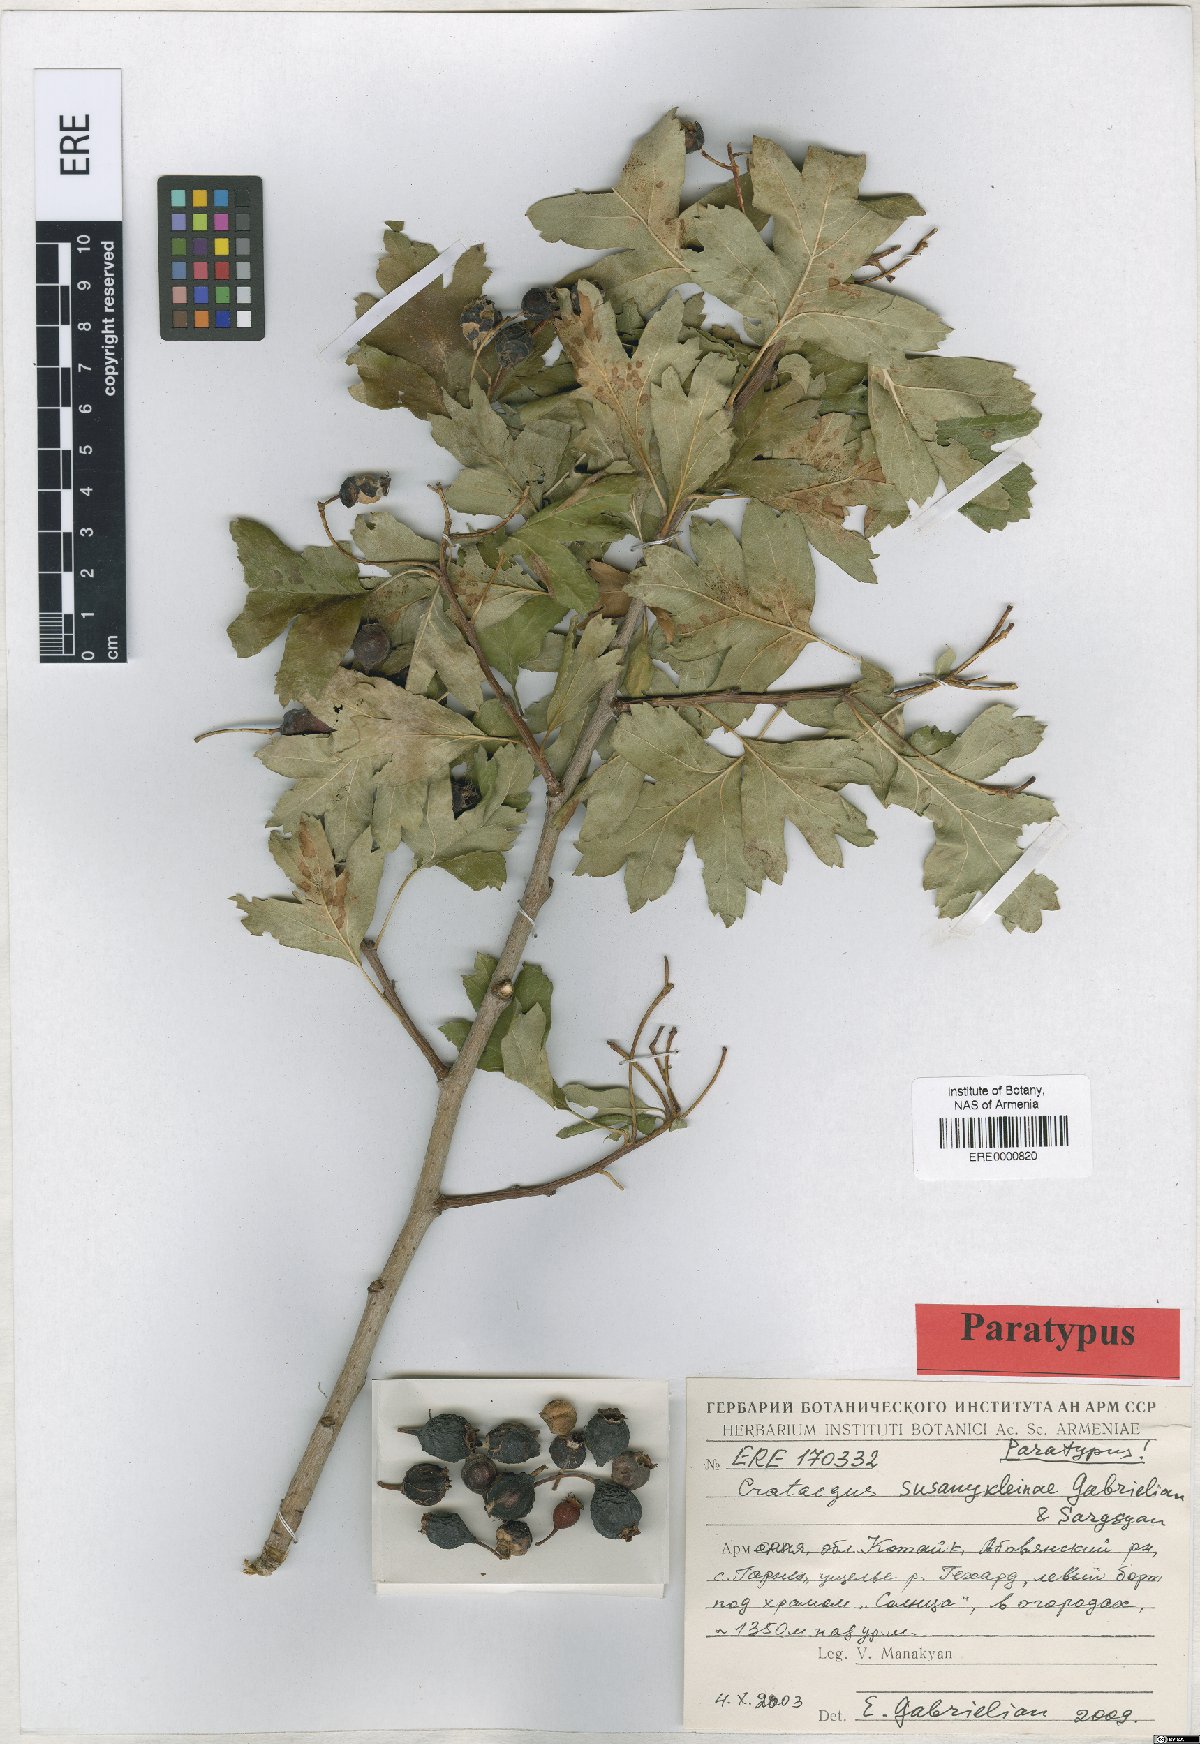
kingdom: Plantae
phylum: Tracheophyta
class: Magnoliopsida
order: Rosales
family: Rosaceae
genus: Crataegus
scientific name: Crataegus
